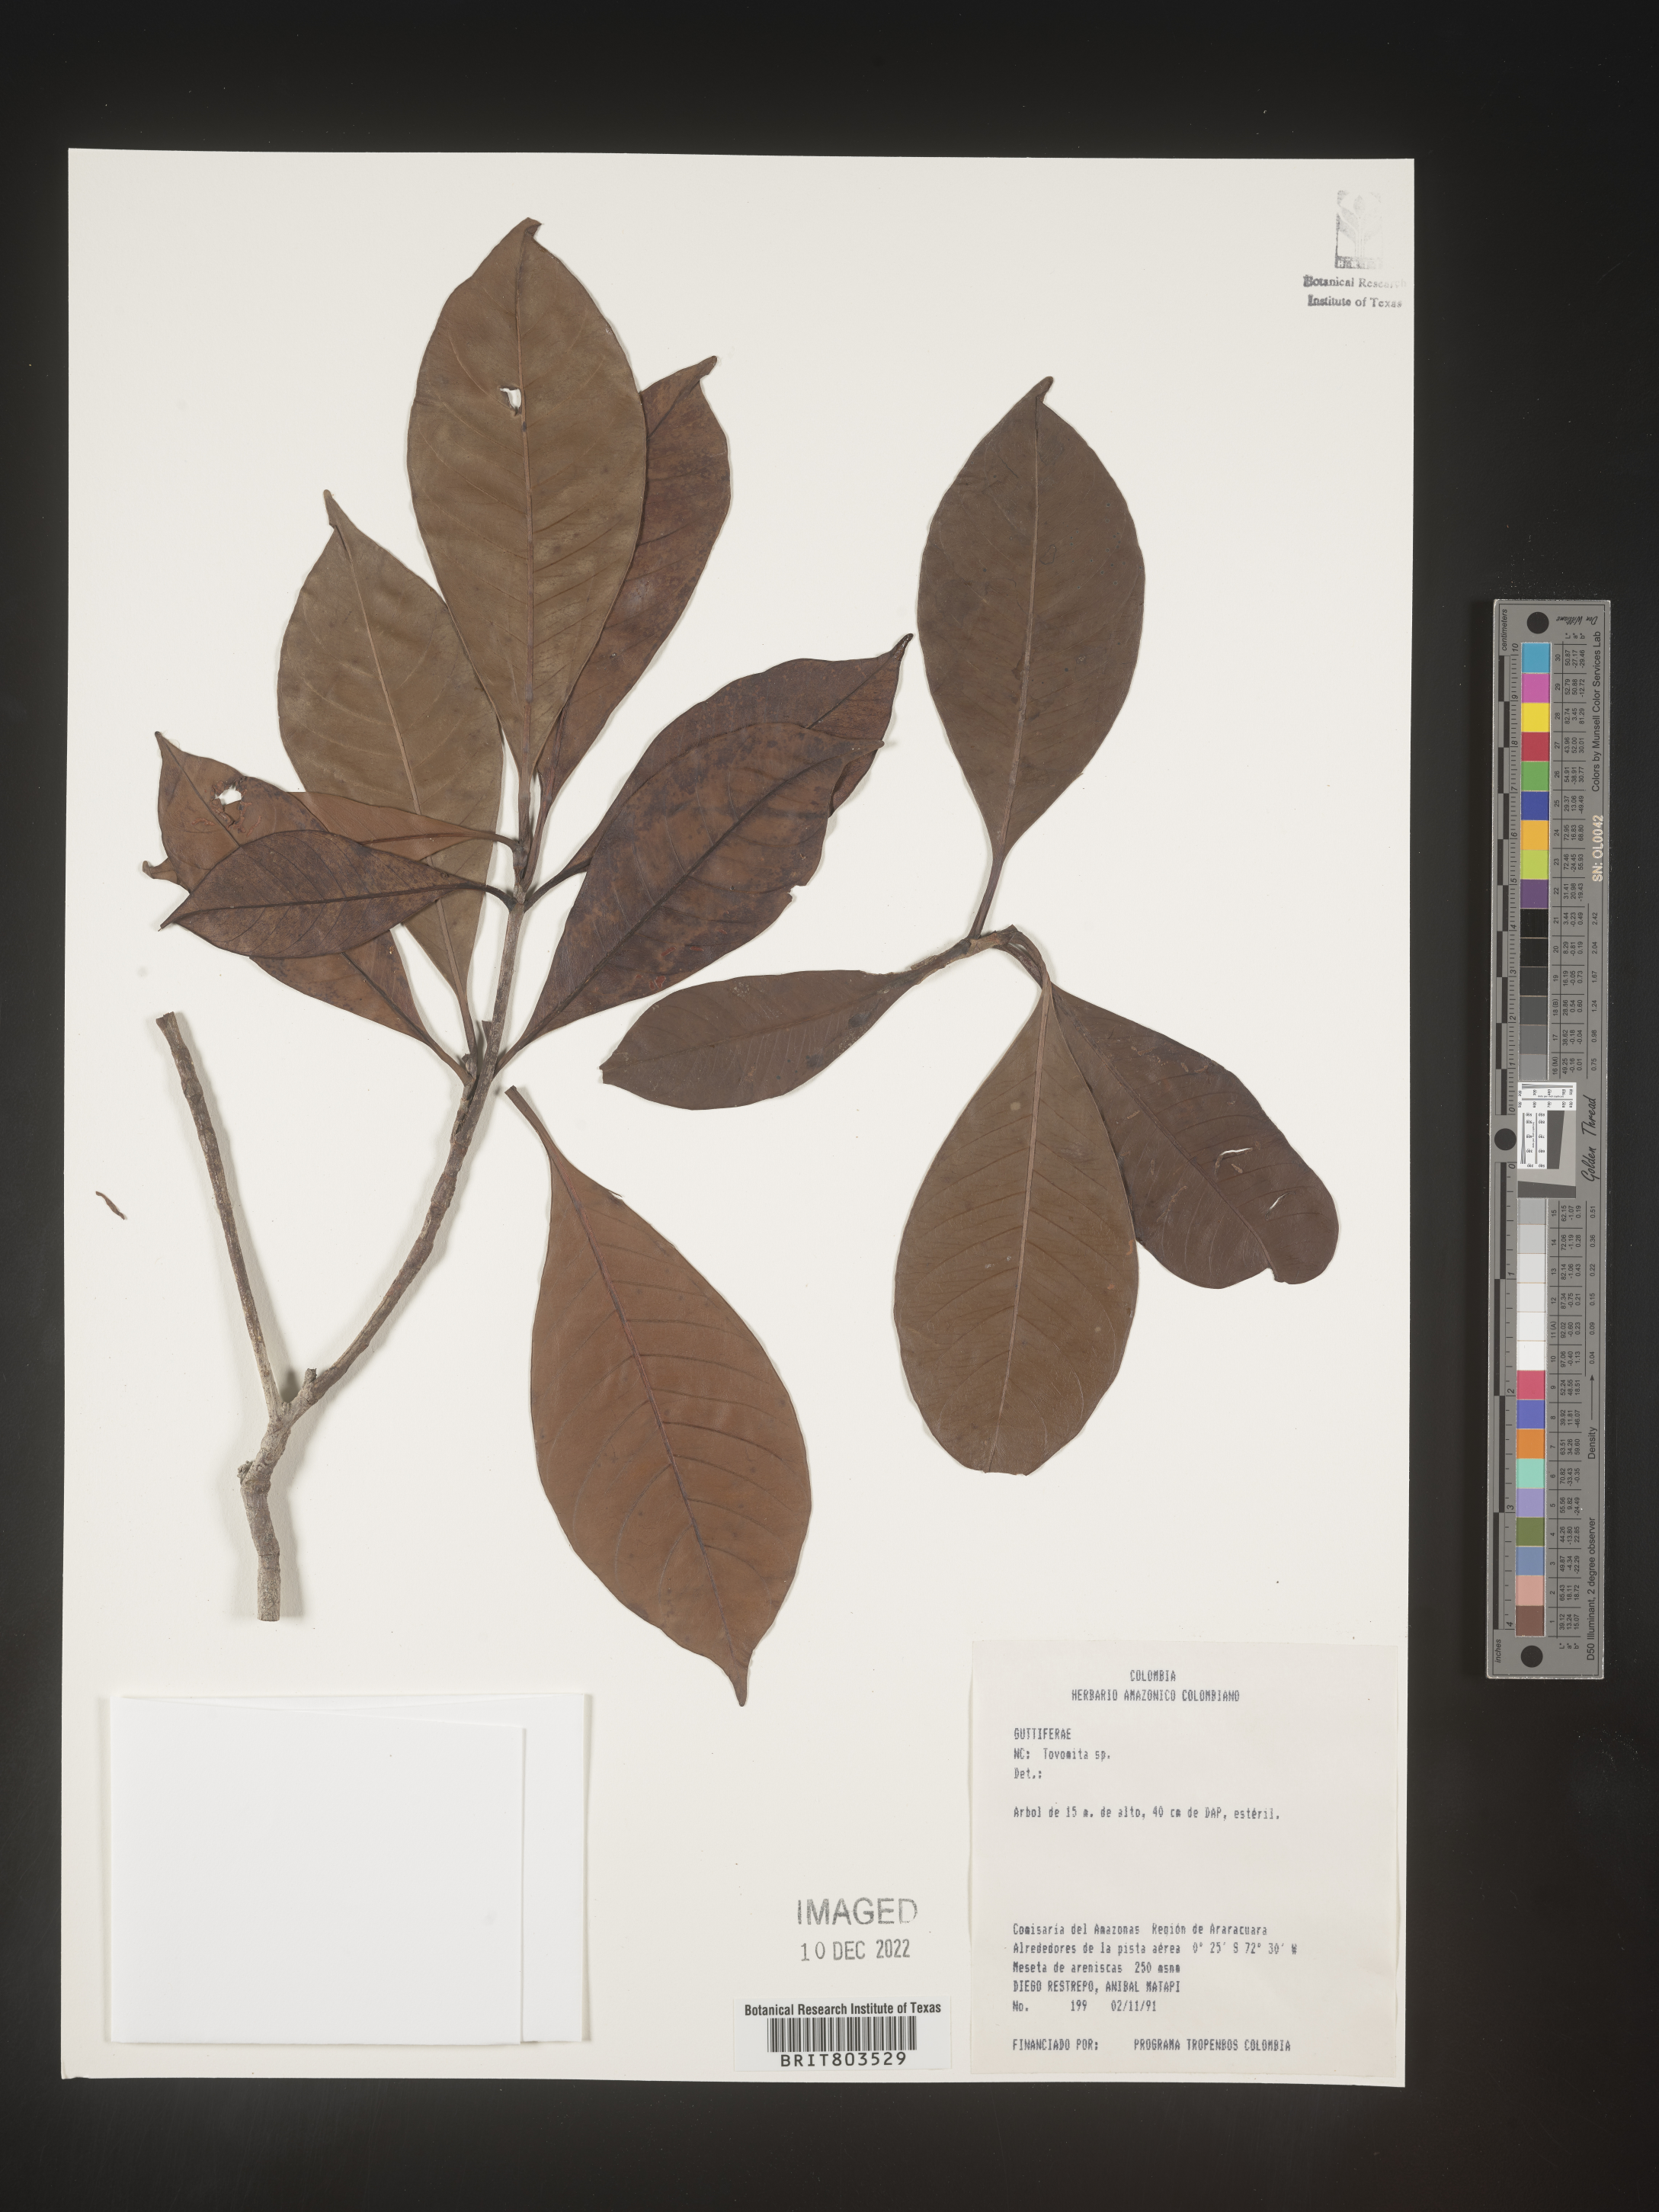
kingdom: Plantae
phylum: Tracheophyta
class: Magnoliopsida
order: Malpighiales
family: Clusiaceae
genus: Tovomita
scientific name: Tovomita
